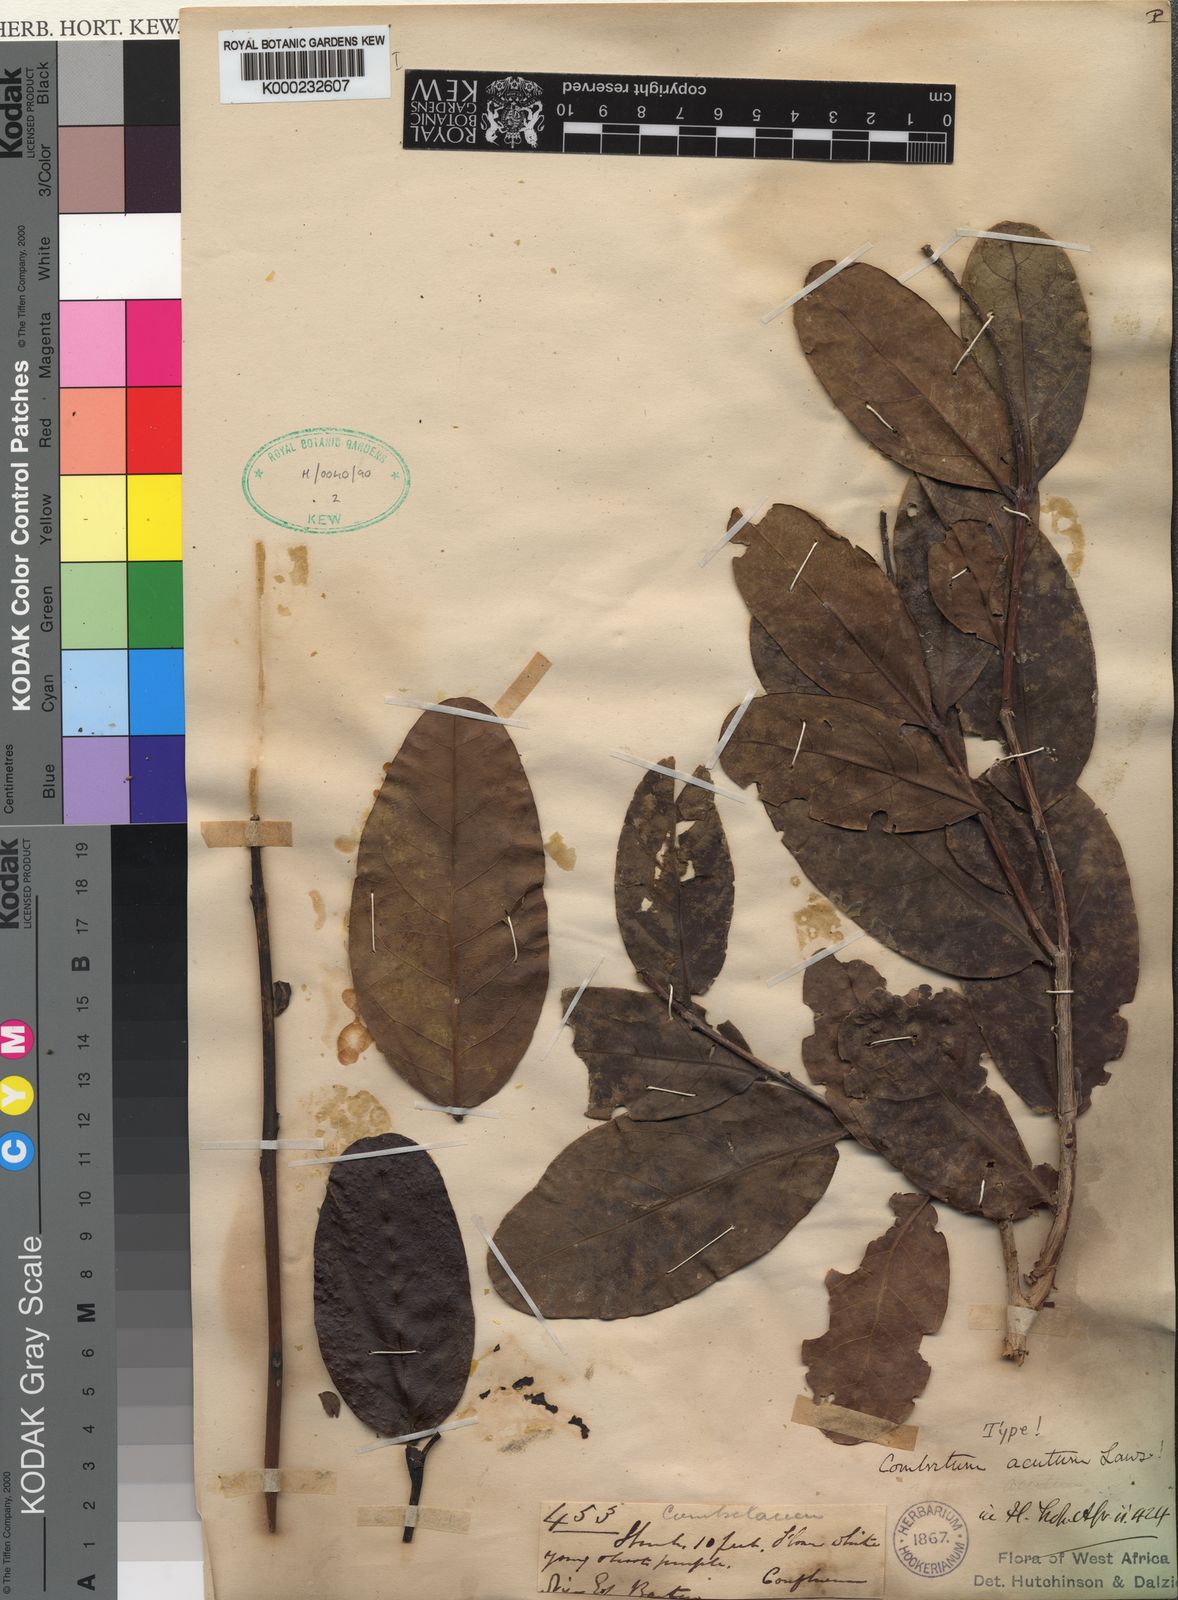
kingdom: Plantae
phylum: Tracheophyta
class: Magnoliopsida
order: Myrtales
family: Combretaceae
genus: Combretum
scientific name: Combretum acutum
